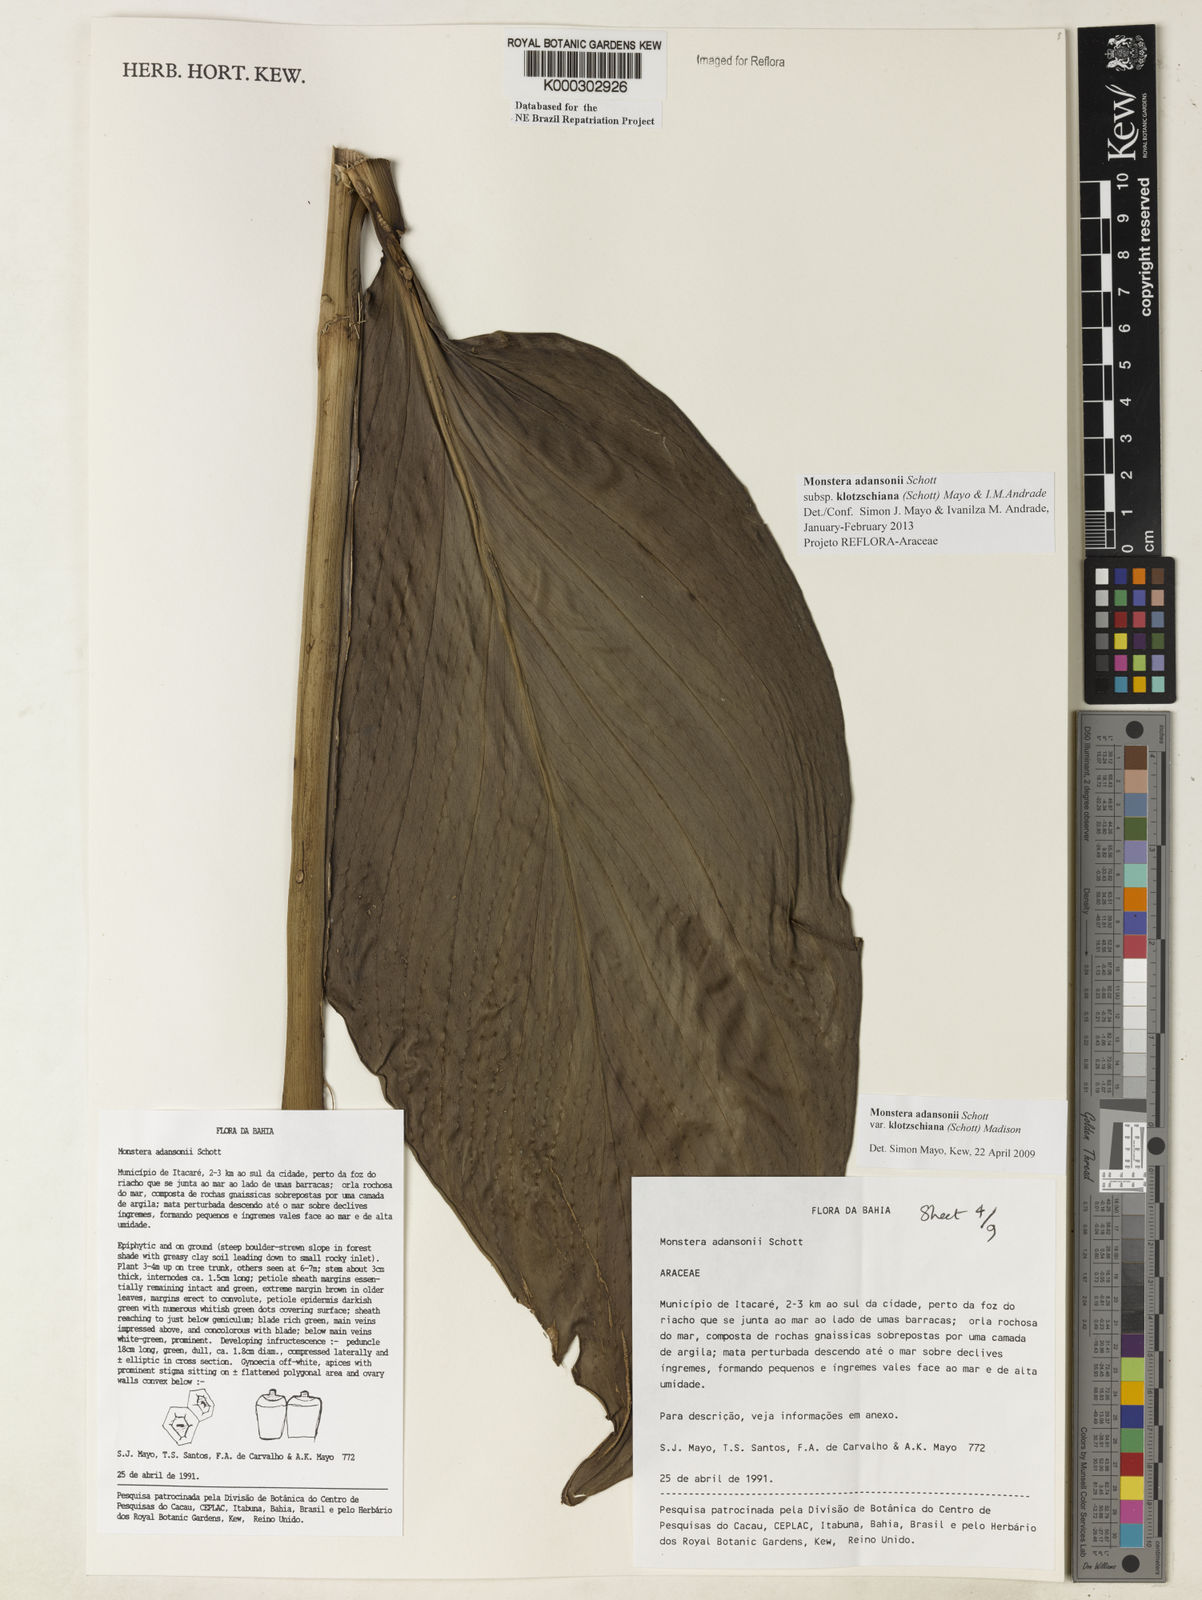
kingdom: Plantae
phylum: Tracheophyta
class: Liliopsida
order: Alismatales
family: Araceae
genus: Monstera
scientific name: Monstera adansonii
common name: Tarovine
